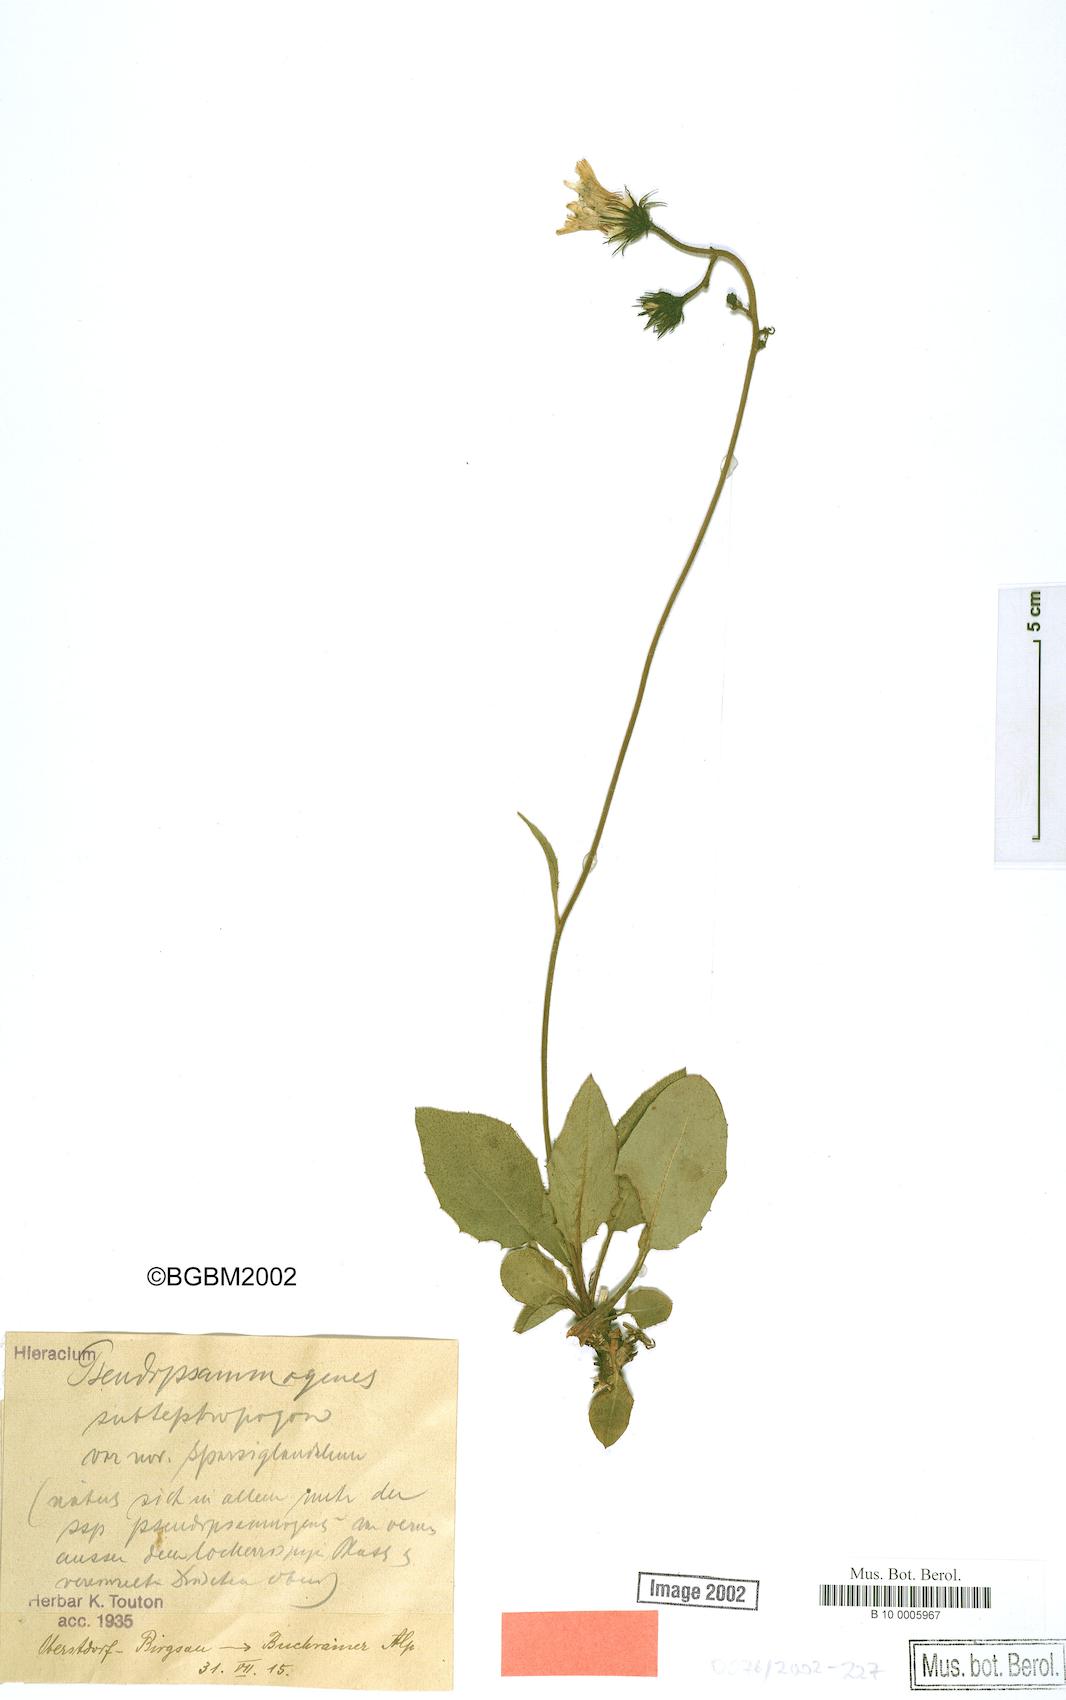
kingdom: Plantae
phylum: Tracheophyta
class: Magnoliopsida
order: Asterales
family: Asteraceae
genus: Hieracium
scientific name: Hieracium bifidum
